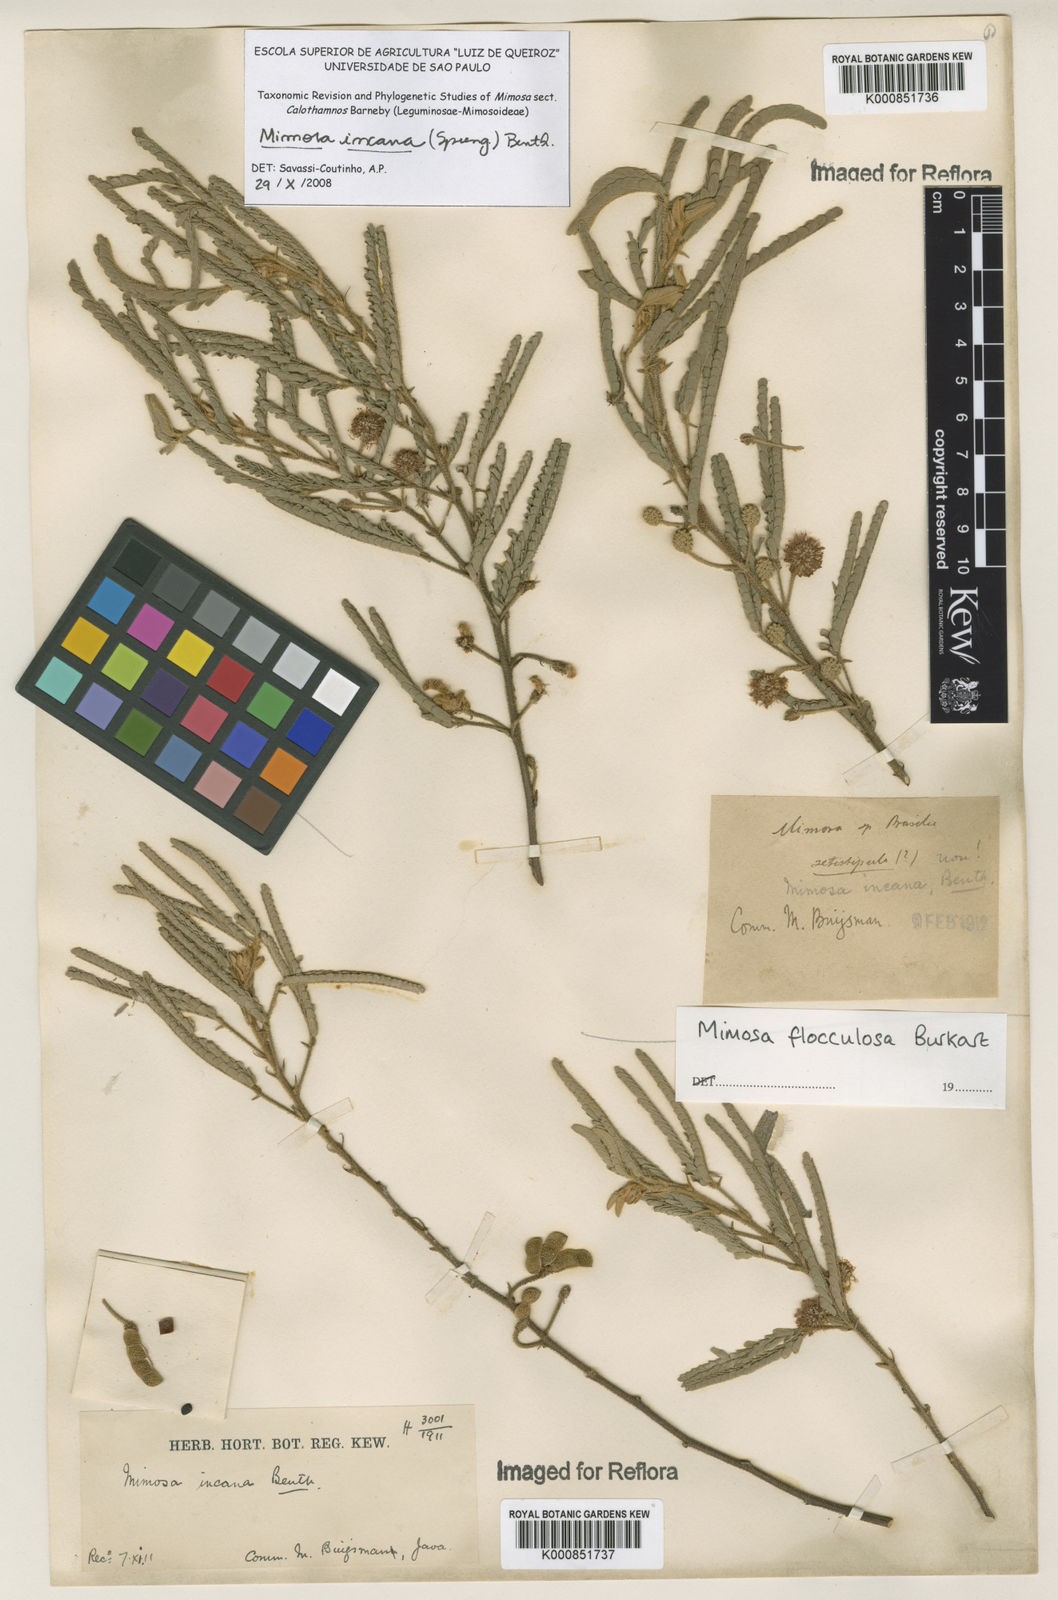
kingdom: Plantae
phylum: Tracheophyta
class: Magnoliopsida
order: Fabales
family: Fabaceae
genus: Mimosa
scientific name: Mimosa incana
